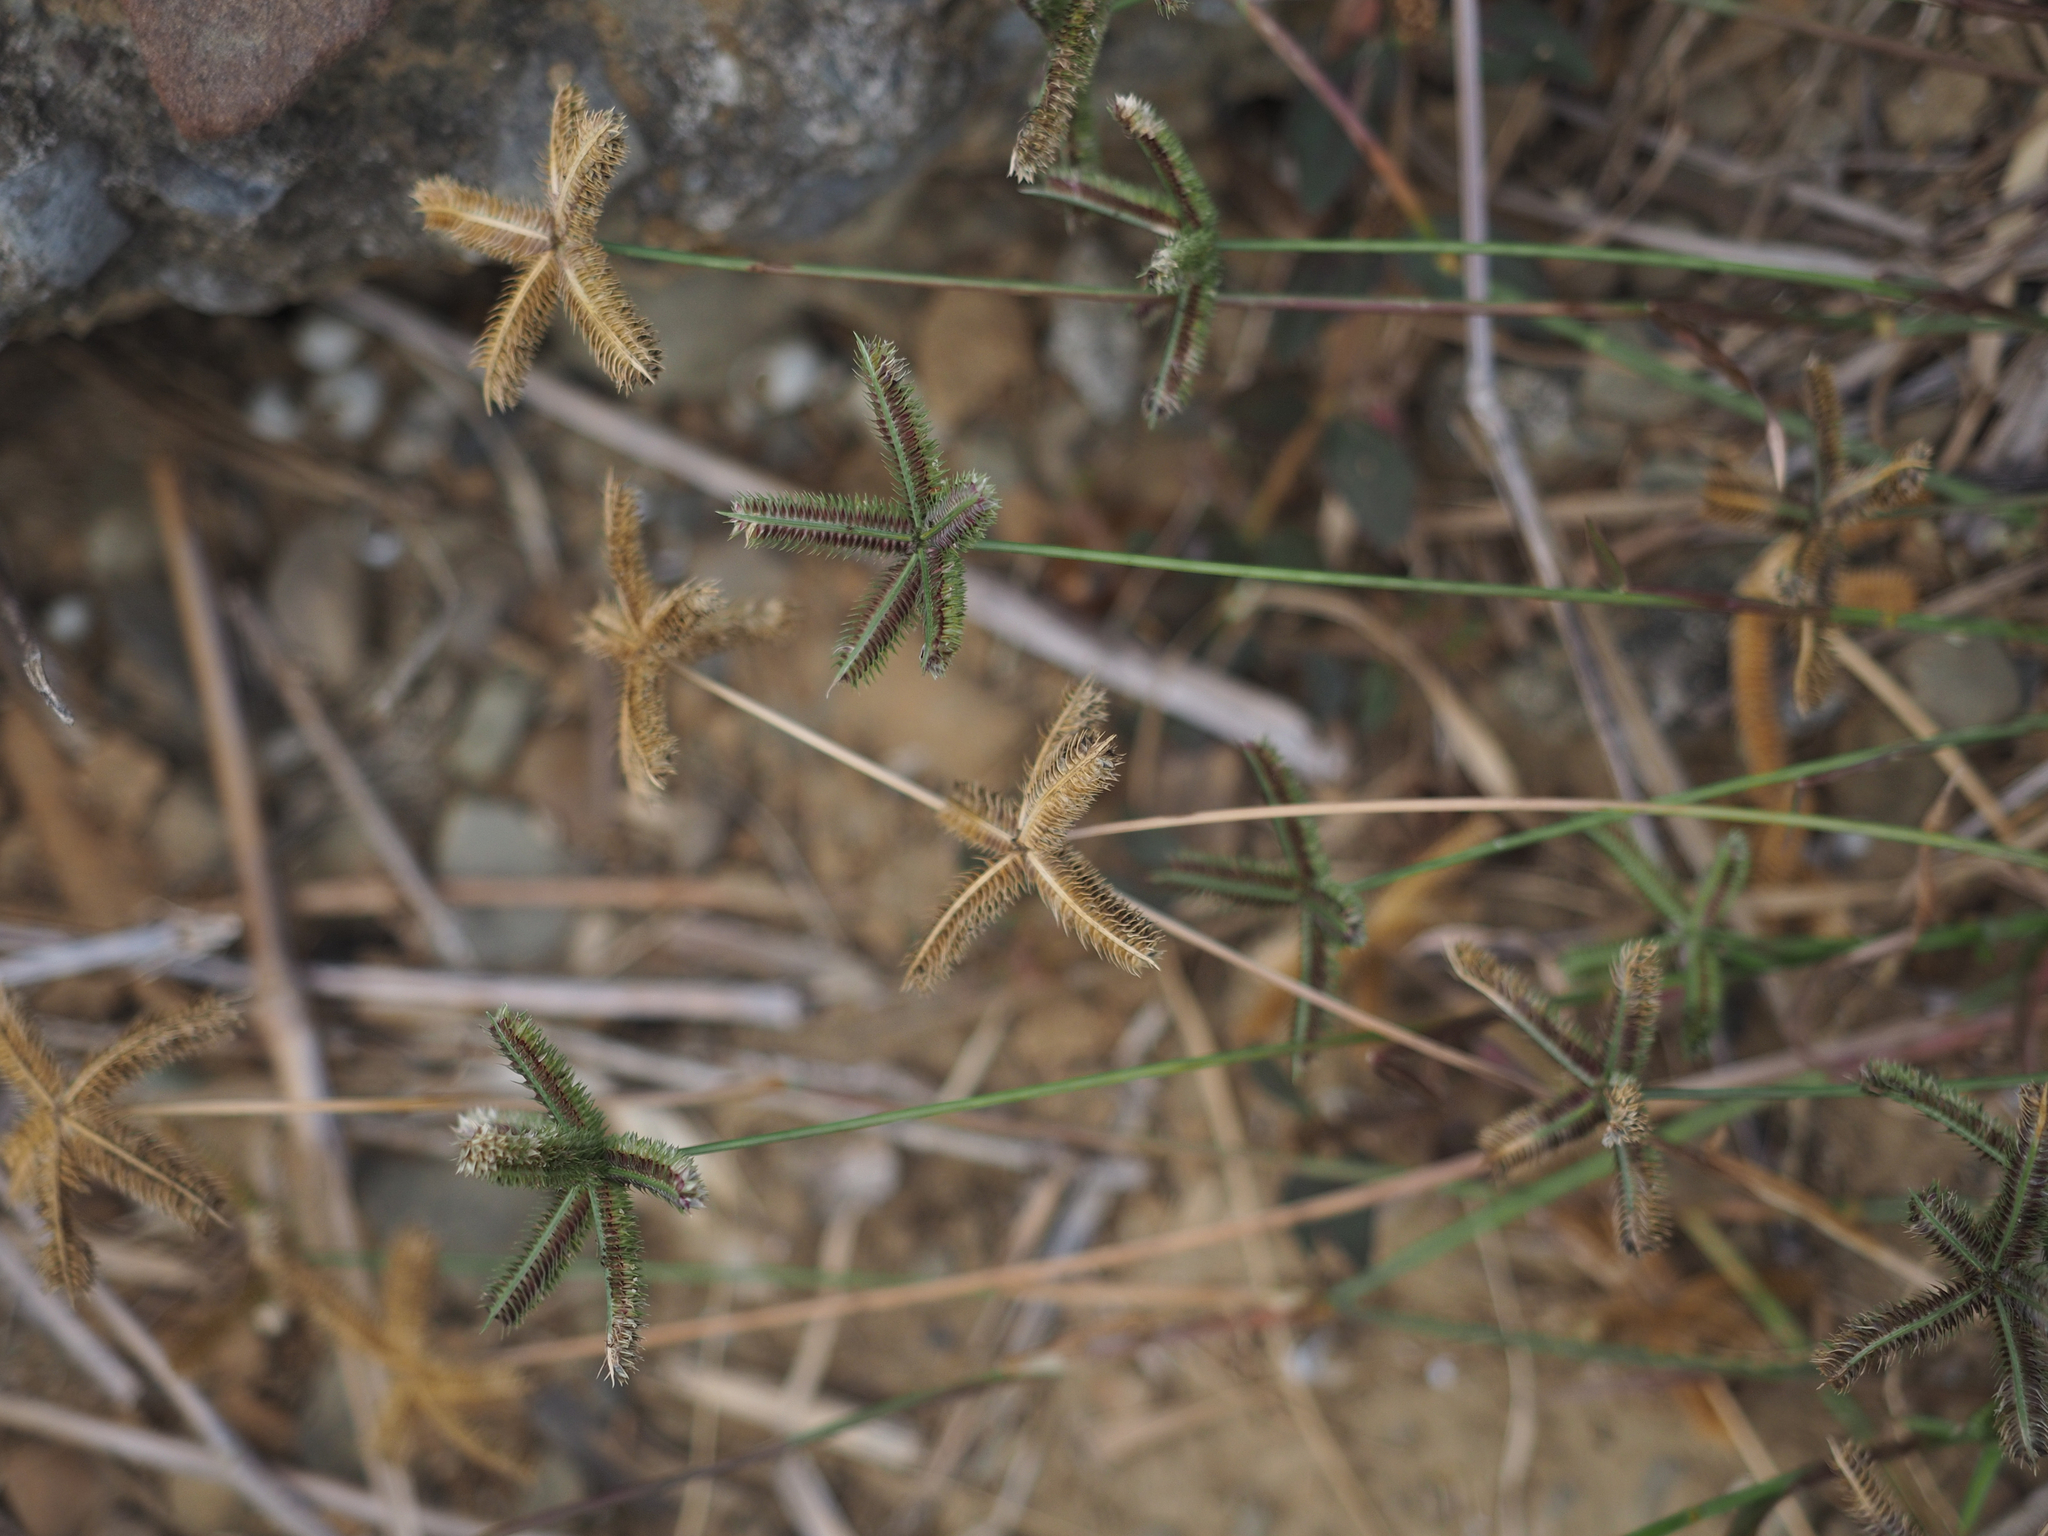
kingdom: Plantae
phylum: Tracheophyta
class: Liliopsida
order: Poales
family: Poaceae
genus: Dactyloctenium
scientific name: Dactyloctenium aegyptium
